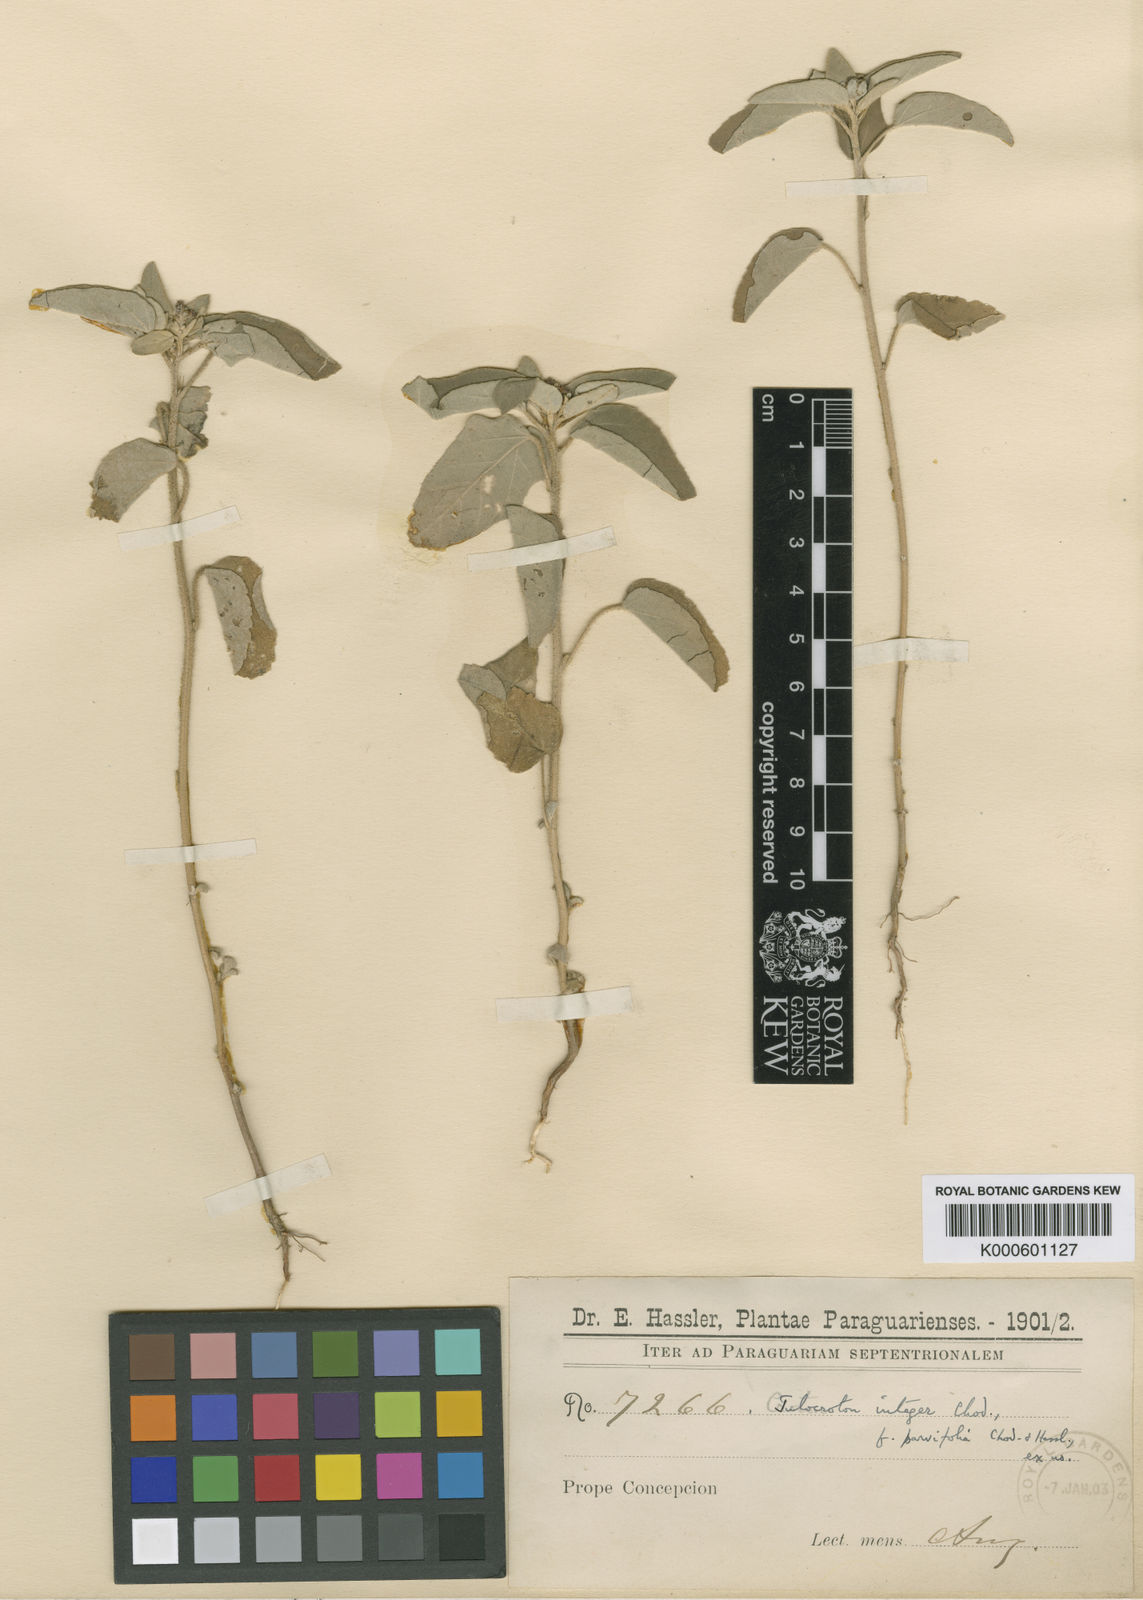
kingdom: Plantae
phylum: Tracheophyta
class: Magnoliopsida
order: Malpighiales
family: Euphorbiaceae
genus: Croton
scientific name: Croton argenteus
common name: Silver july croton
